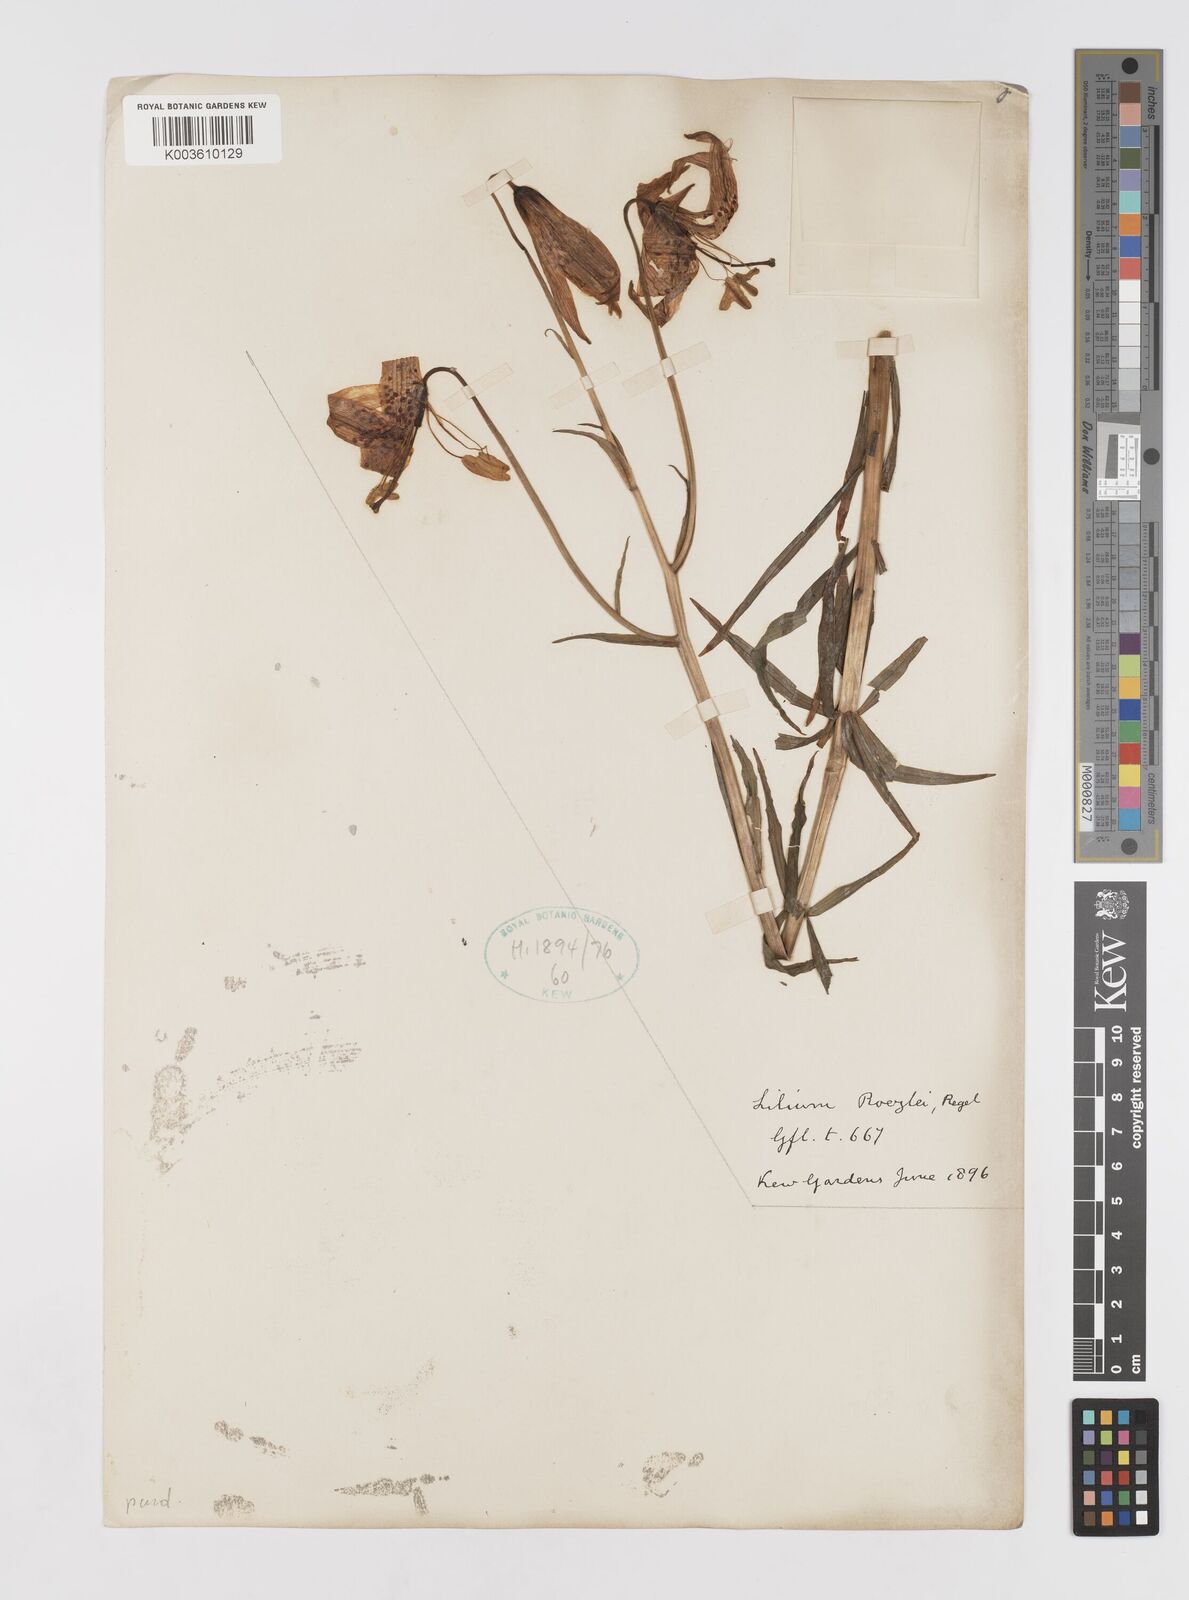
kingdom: Plantae
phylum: Tracheophyta
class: Liliopsida
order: Liliales
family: Liliaceae
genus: Lilium
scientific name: Lilium occidentale
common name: Eureka lily
